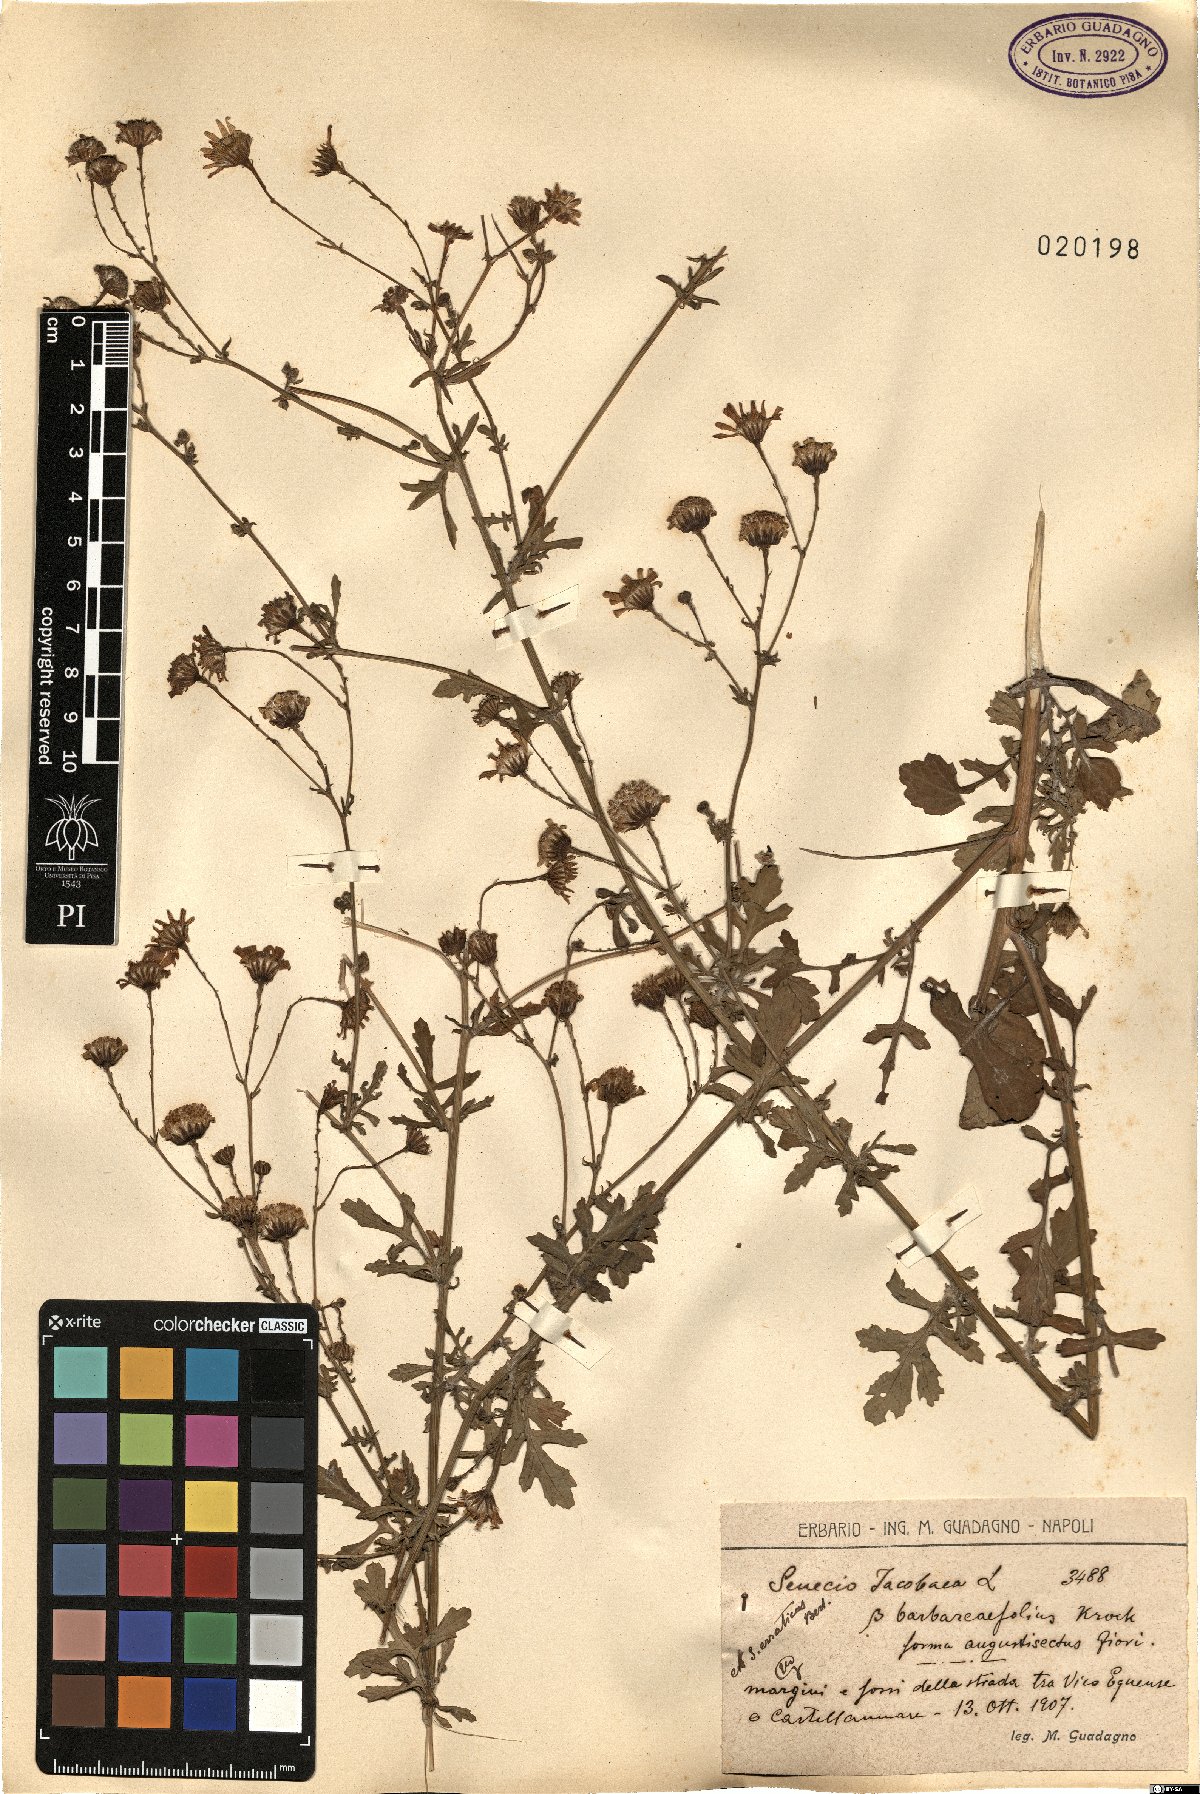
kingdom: Plantae
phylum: Tracheophyta
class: Magnoliopsida
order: Asterales
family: Asteraceae
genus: Jacobaea
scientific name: Jacobaea erratica
